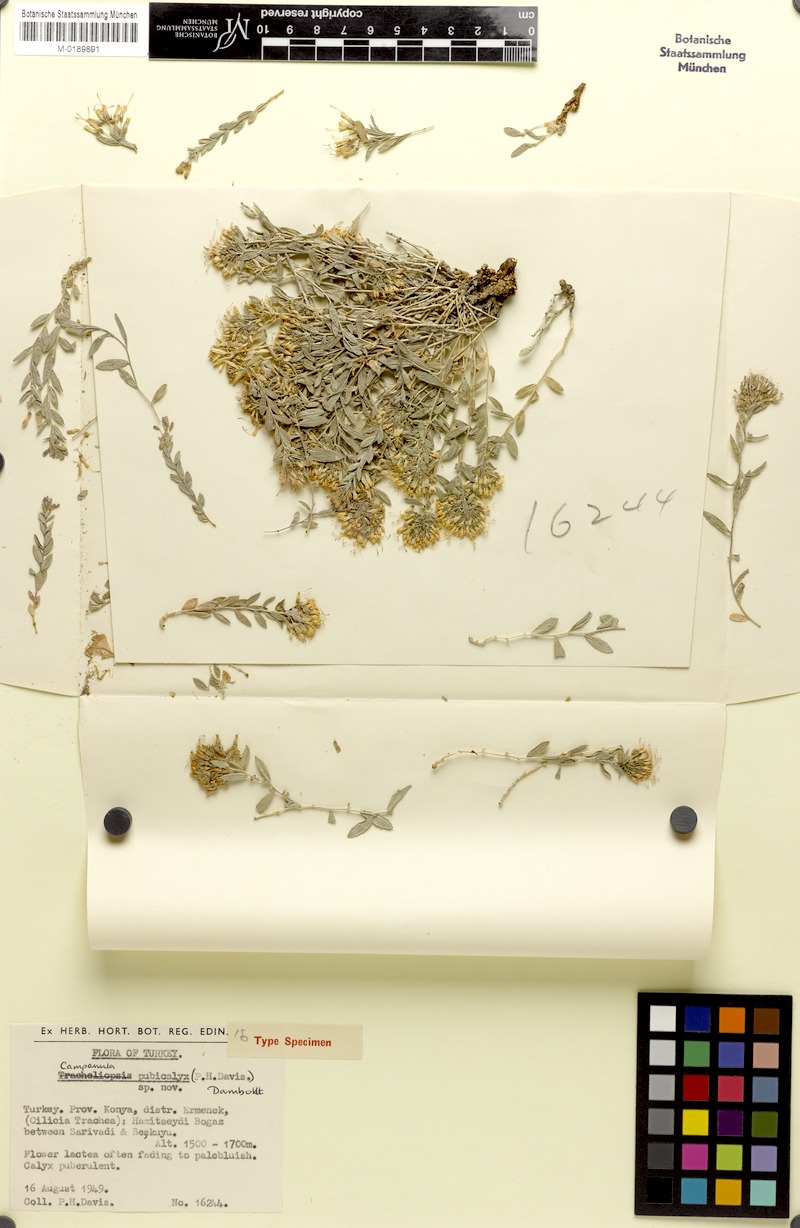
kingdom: Plantae
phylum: Tracheophyta
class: Magnoliopsida
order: Asterales
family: Campanulaceae
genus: Campanula
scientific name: Campanula pubicalyx
